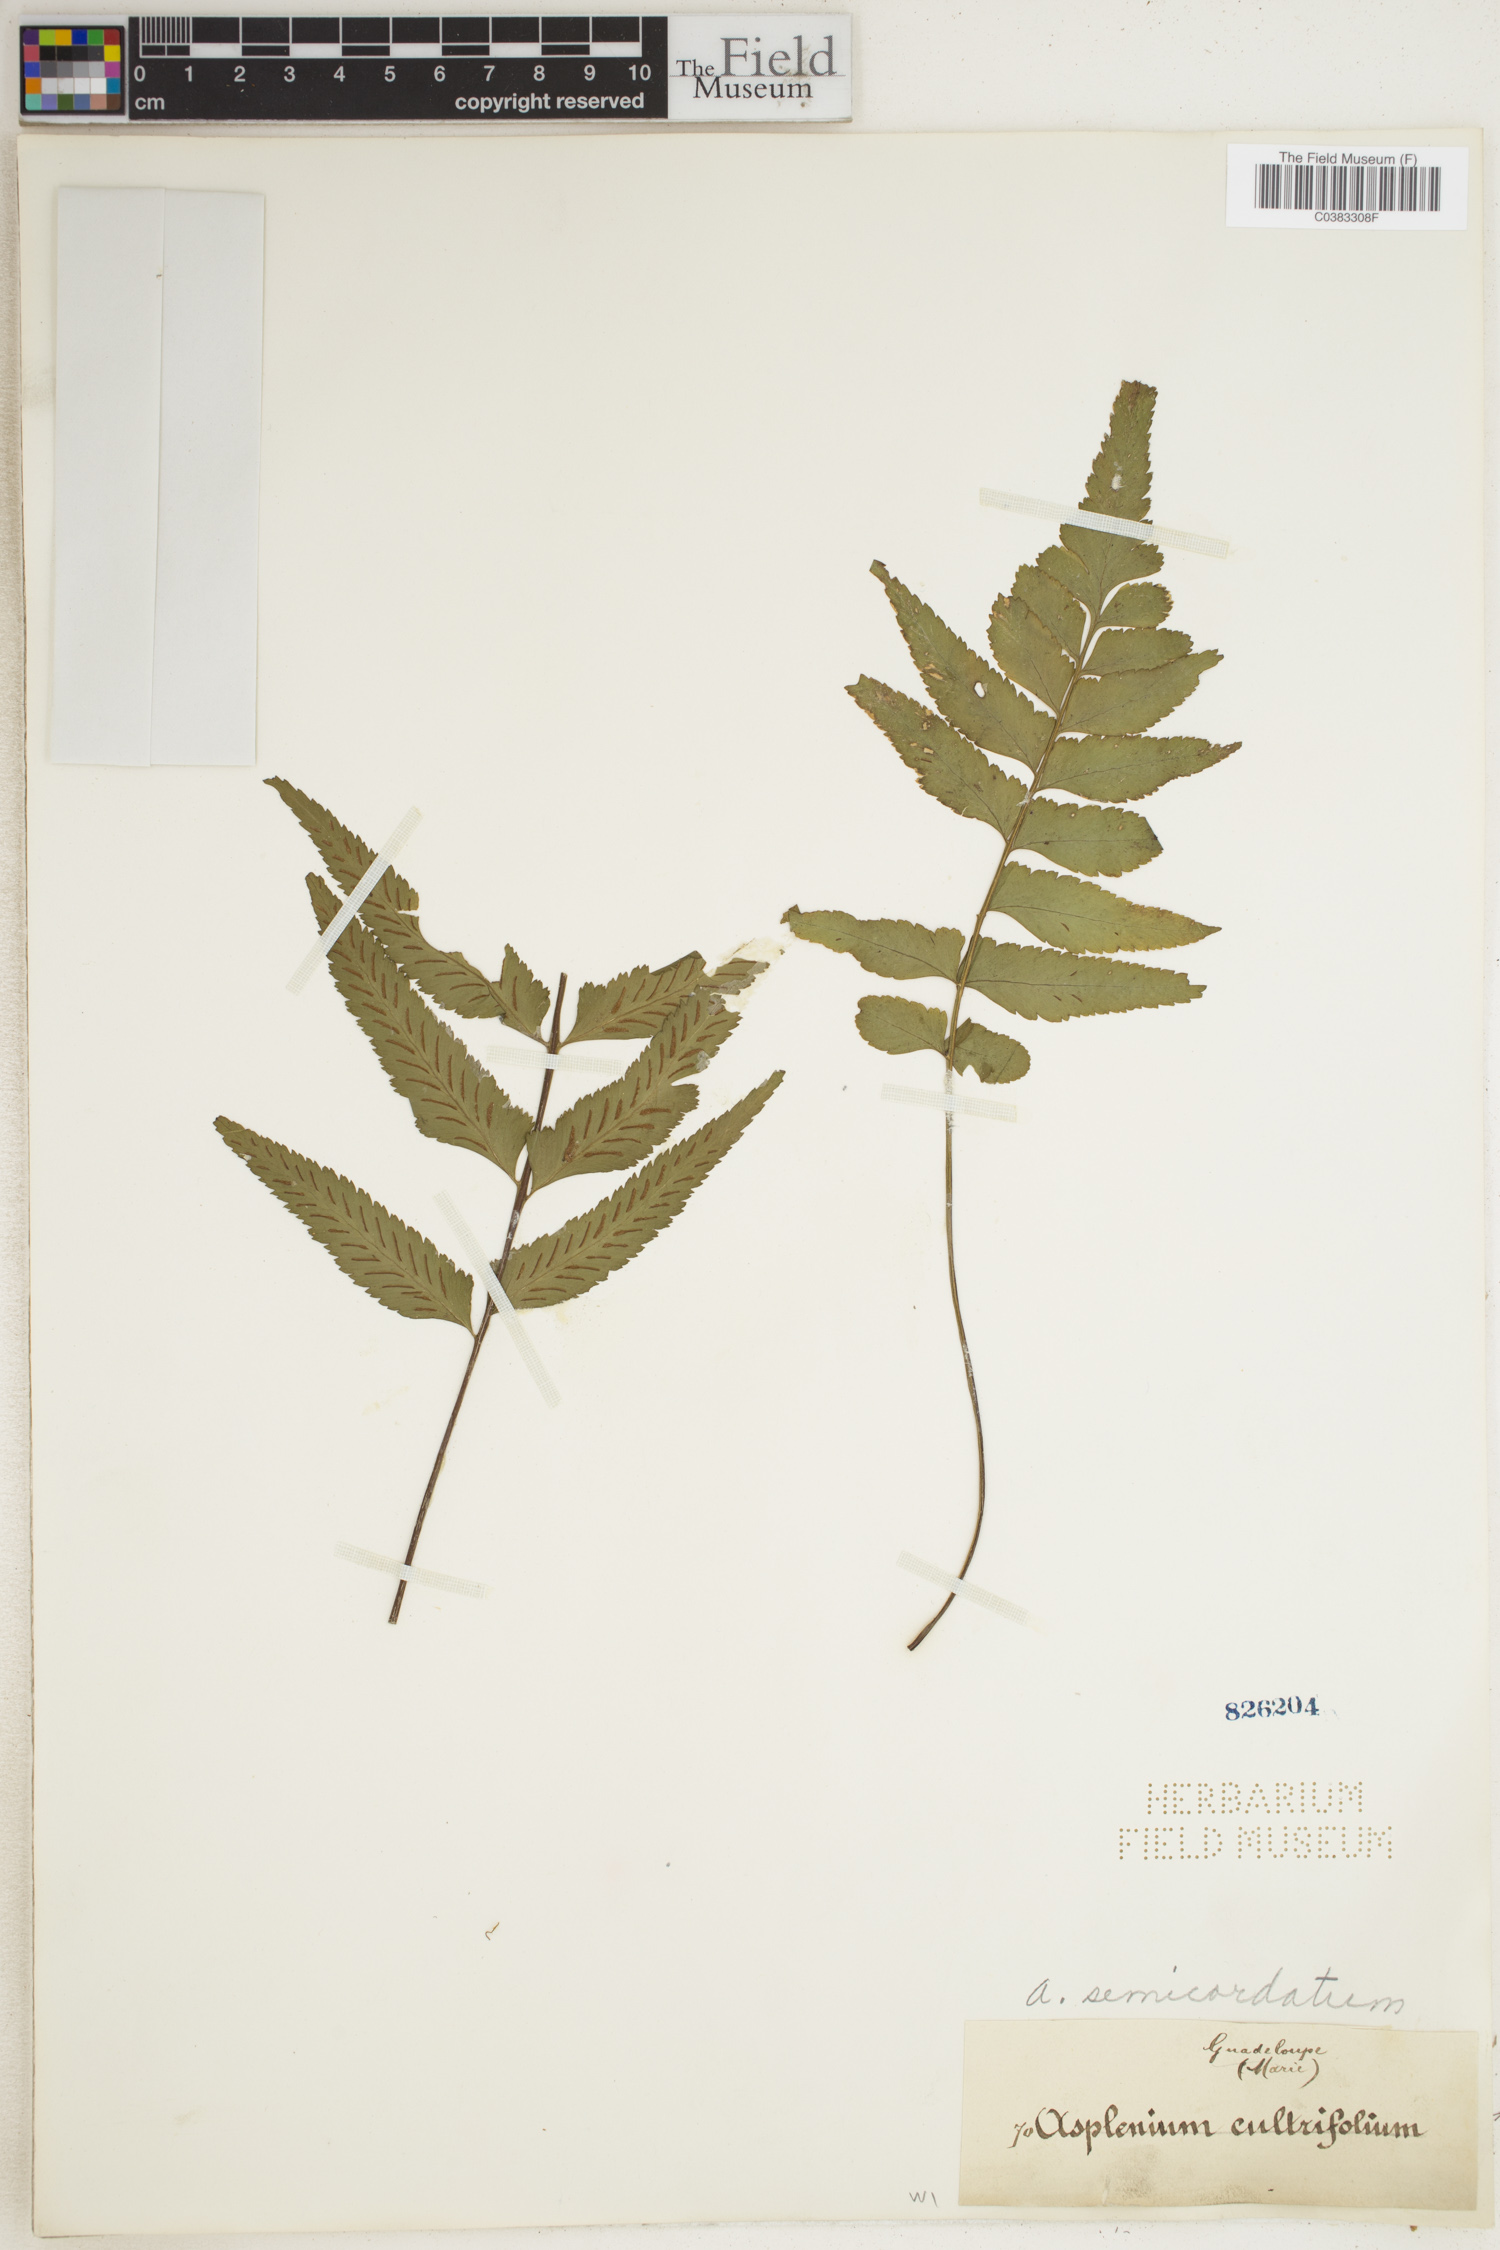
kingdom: Plantae
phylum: Tracheophyta
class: Polypodiopsida
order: Polypodiales
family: Aspleniaceae
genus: Asplenium
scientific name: Asplenium auriculatum
